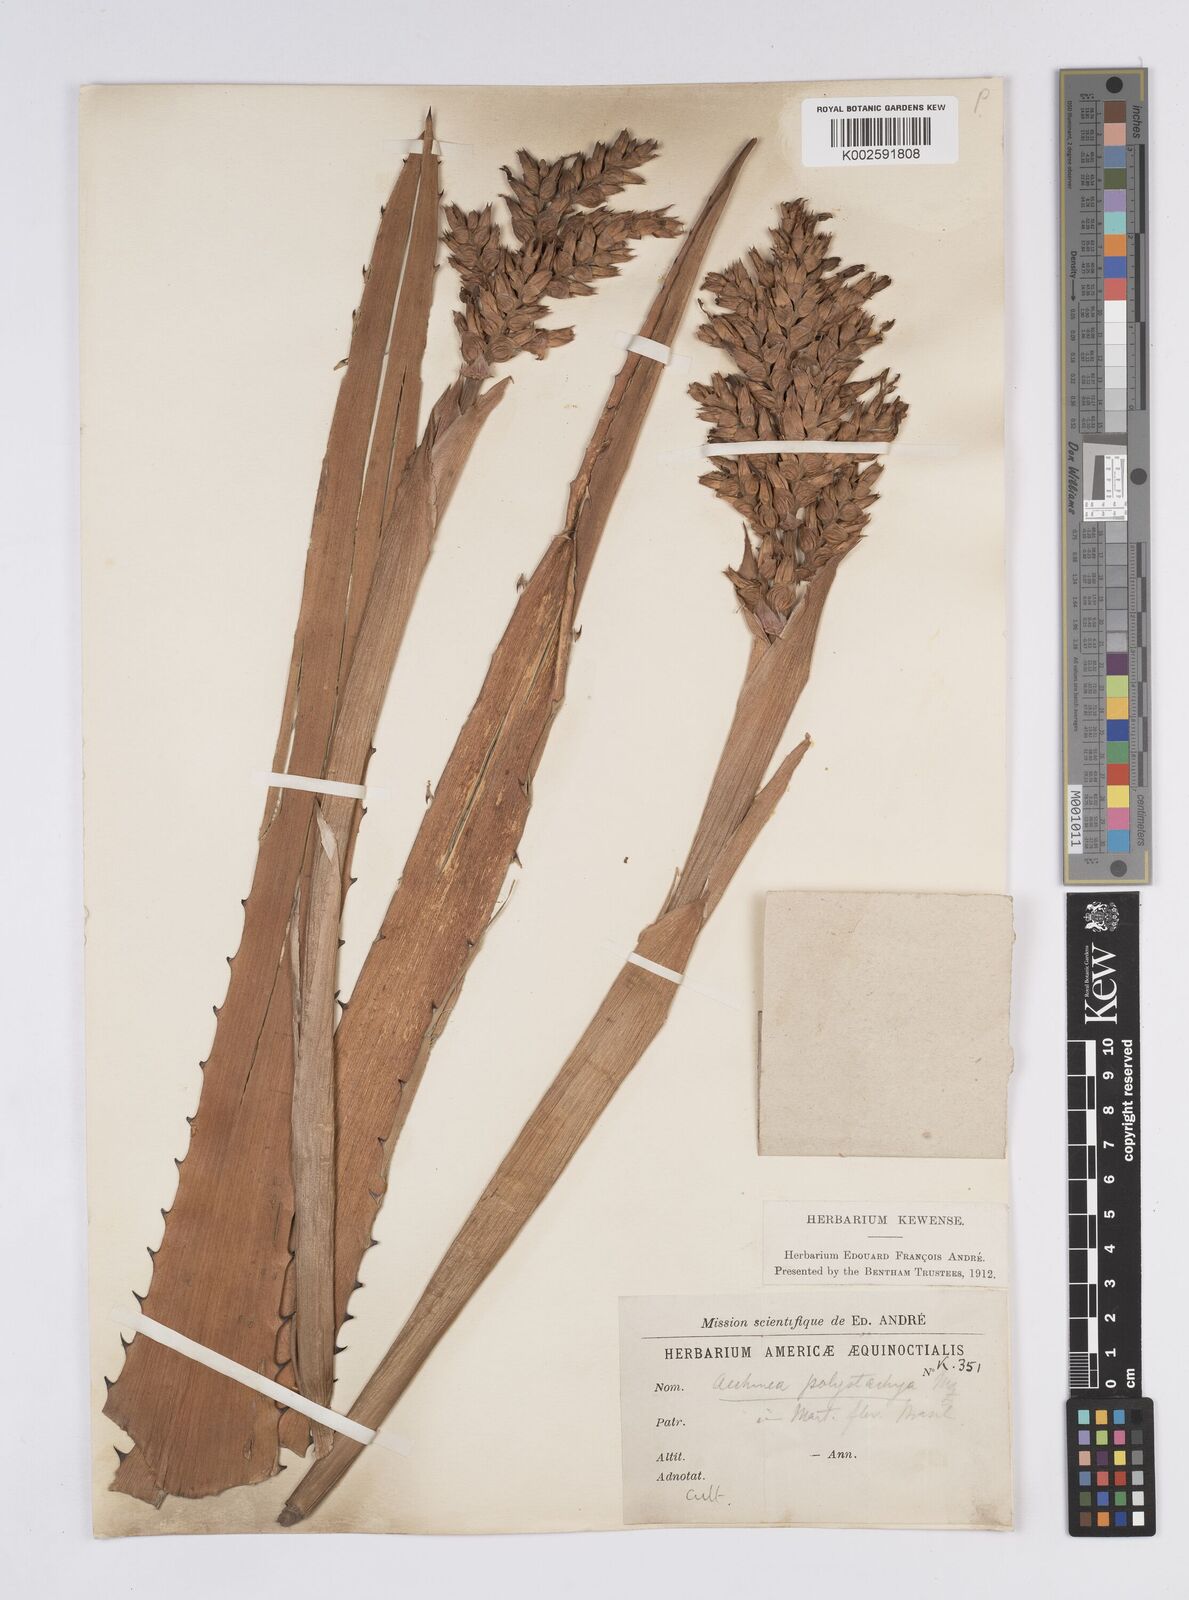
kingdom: Plantae
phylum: Tracheophyta
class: Liliopsida
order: Poales
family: Bromeliaceae
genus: Aechmea
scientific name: Aechmea distichantha
